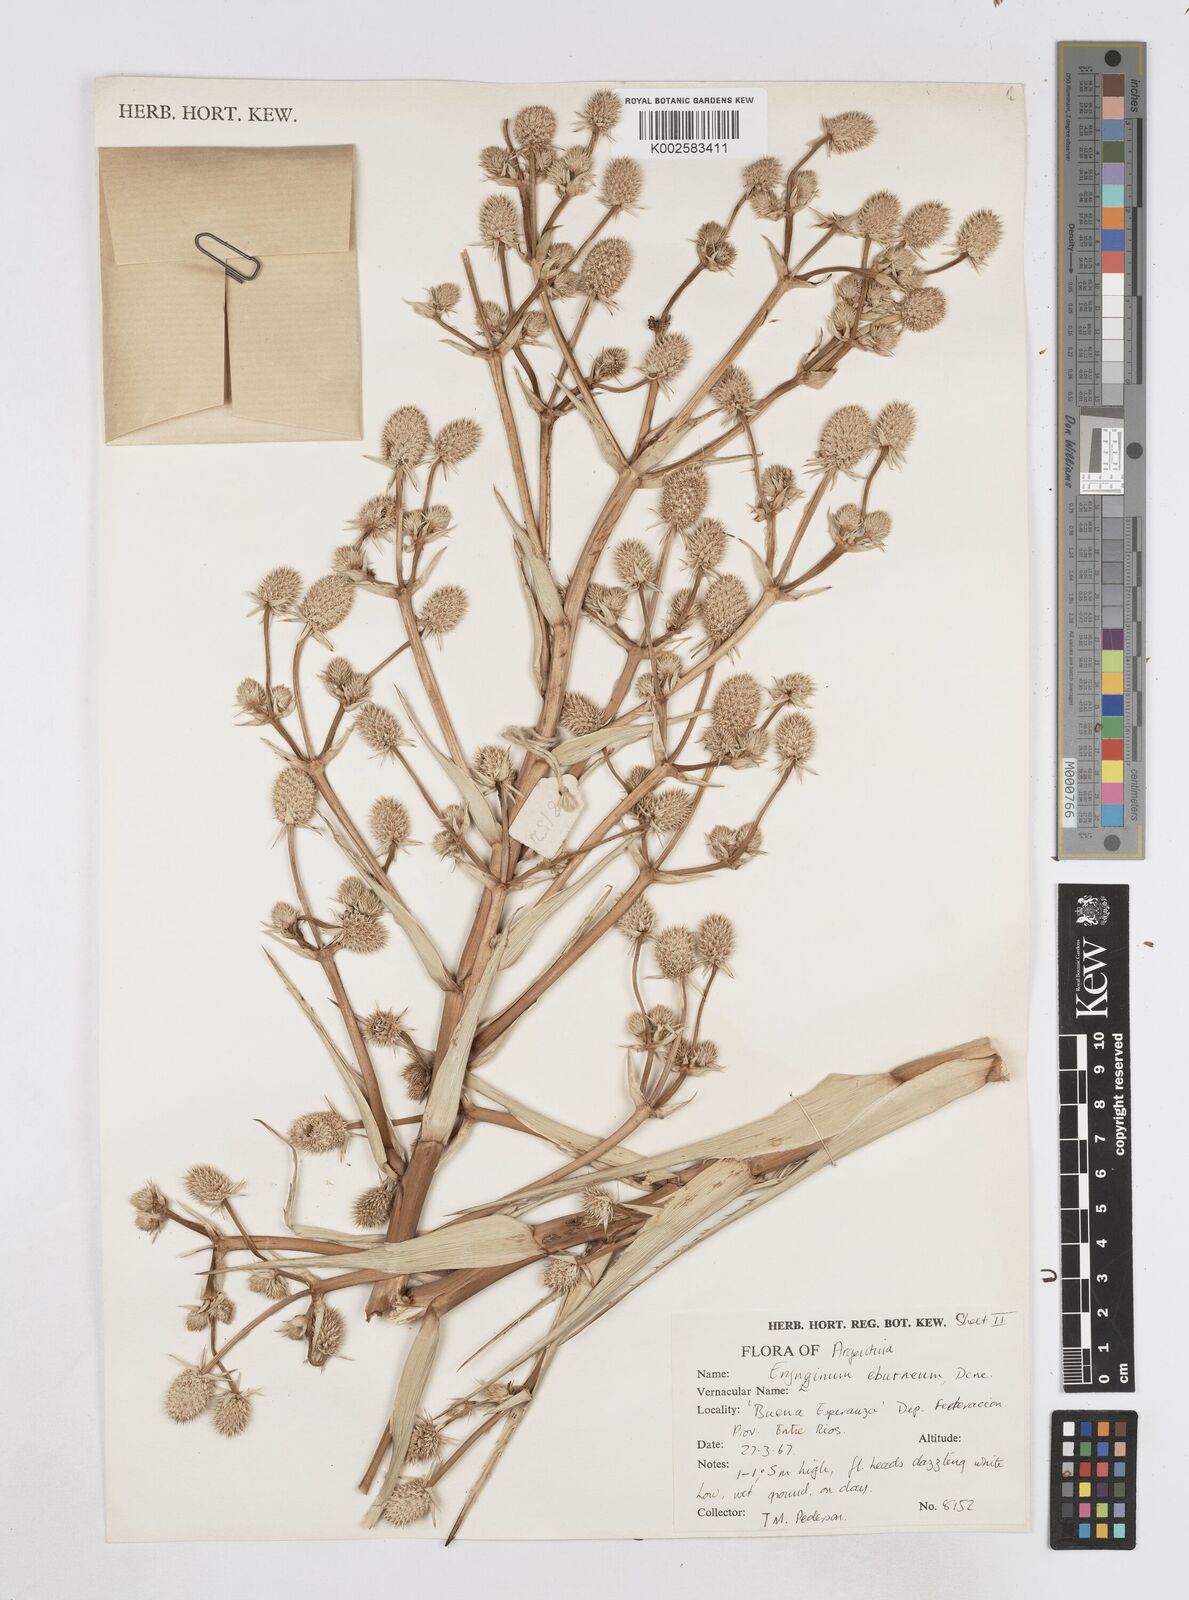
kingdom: Plantae
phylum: Tracheophyta
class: Magnoliopsida
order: Apiales
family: Apiaceae
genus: Eryngium
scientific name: Eryngium eburneum
